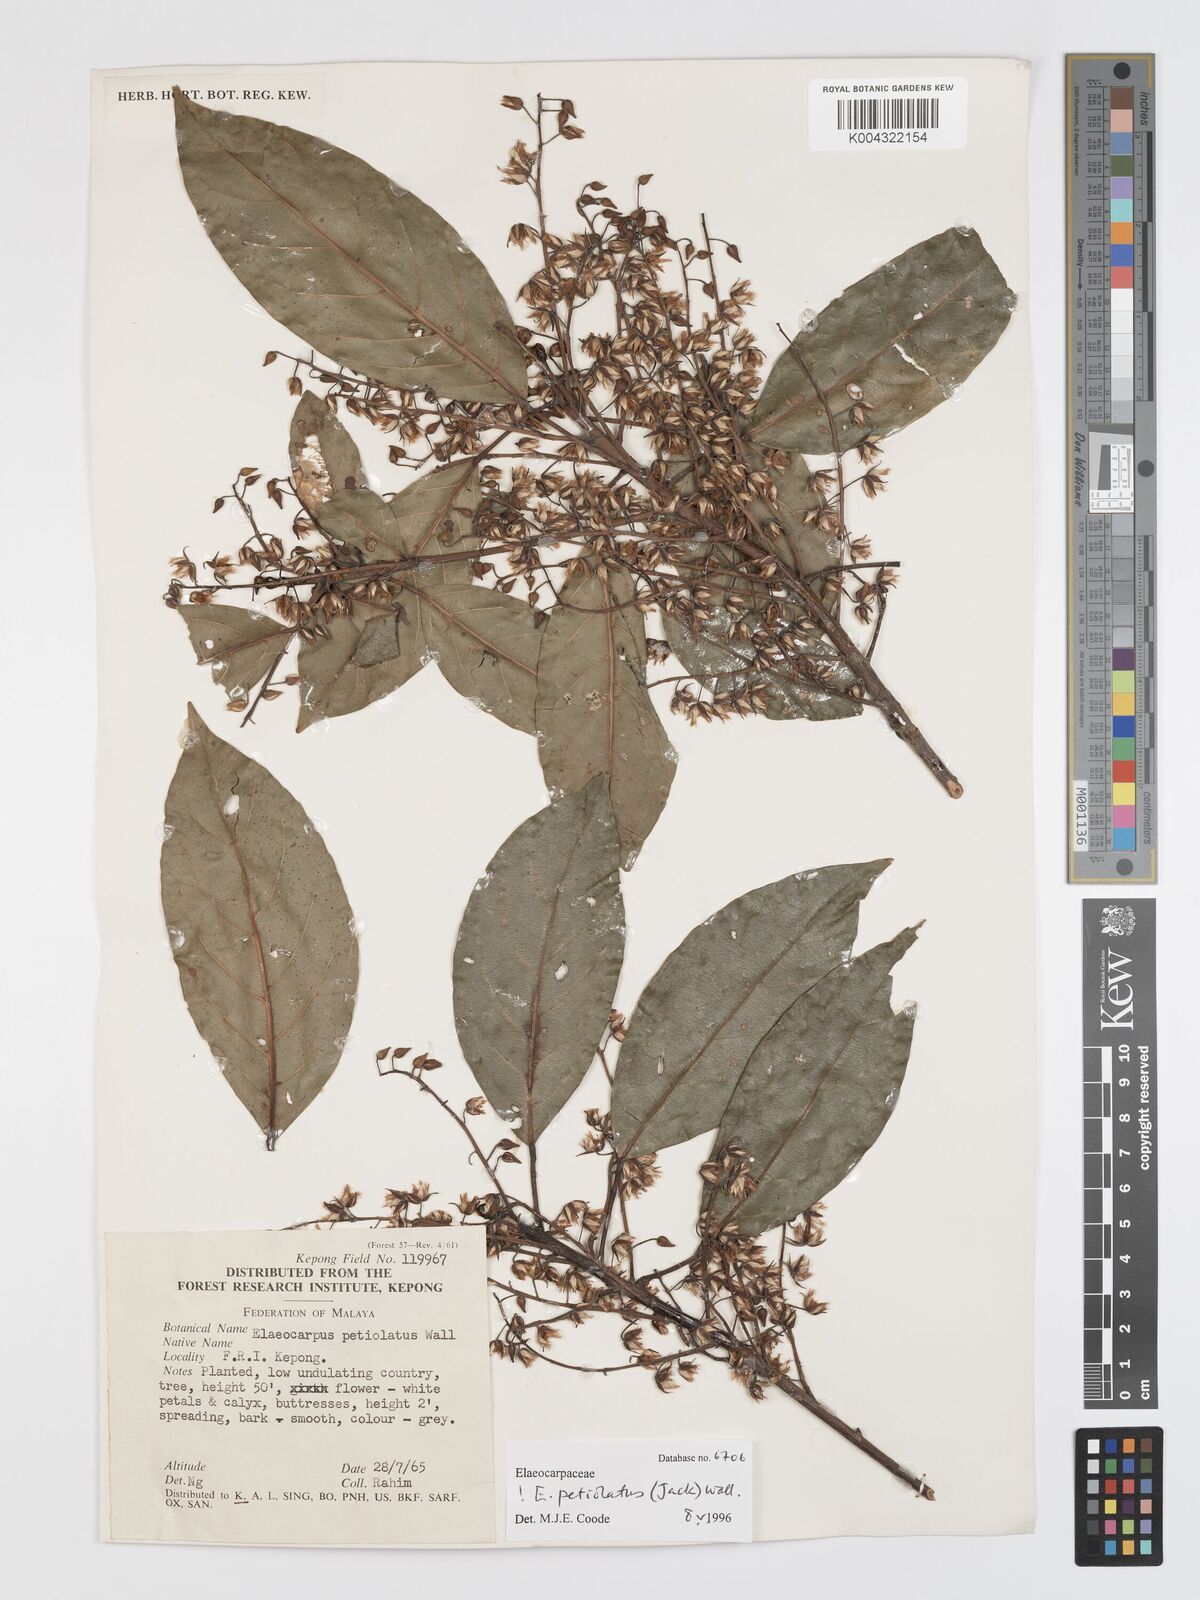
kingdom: Plantae
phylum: Tracheophyta
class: Magnoliopsida
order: Oxalidales
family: Elaeocarpaceae
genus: Elaeocarpus
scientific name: Elaeocarpus
